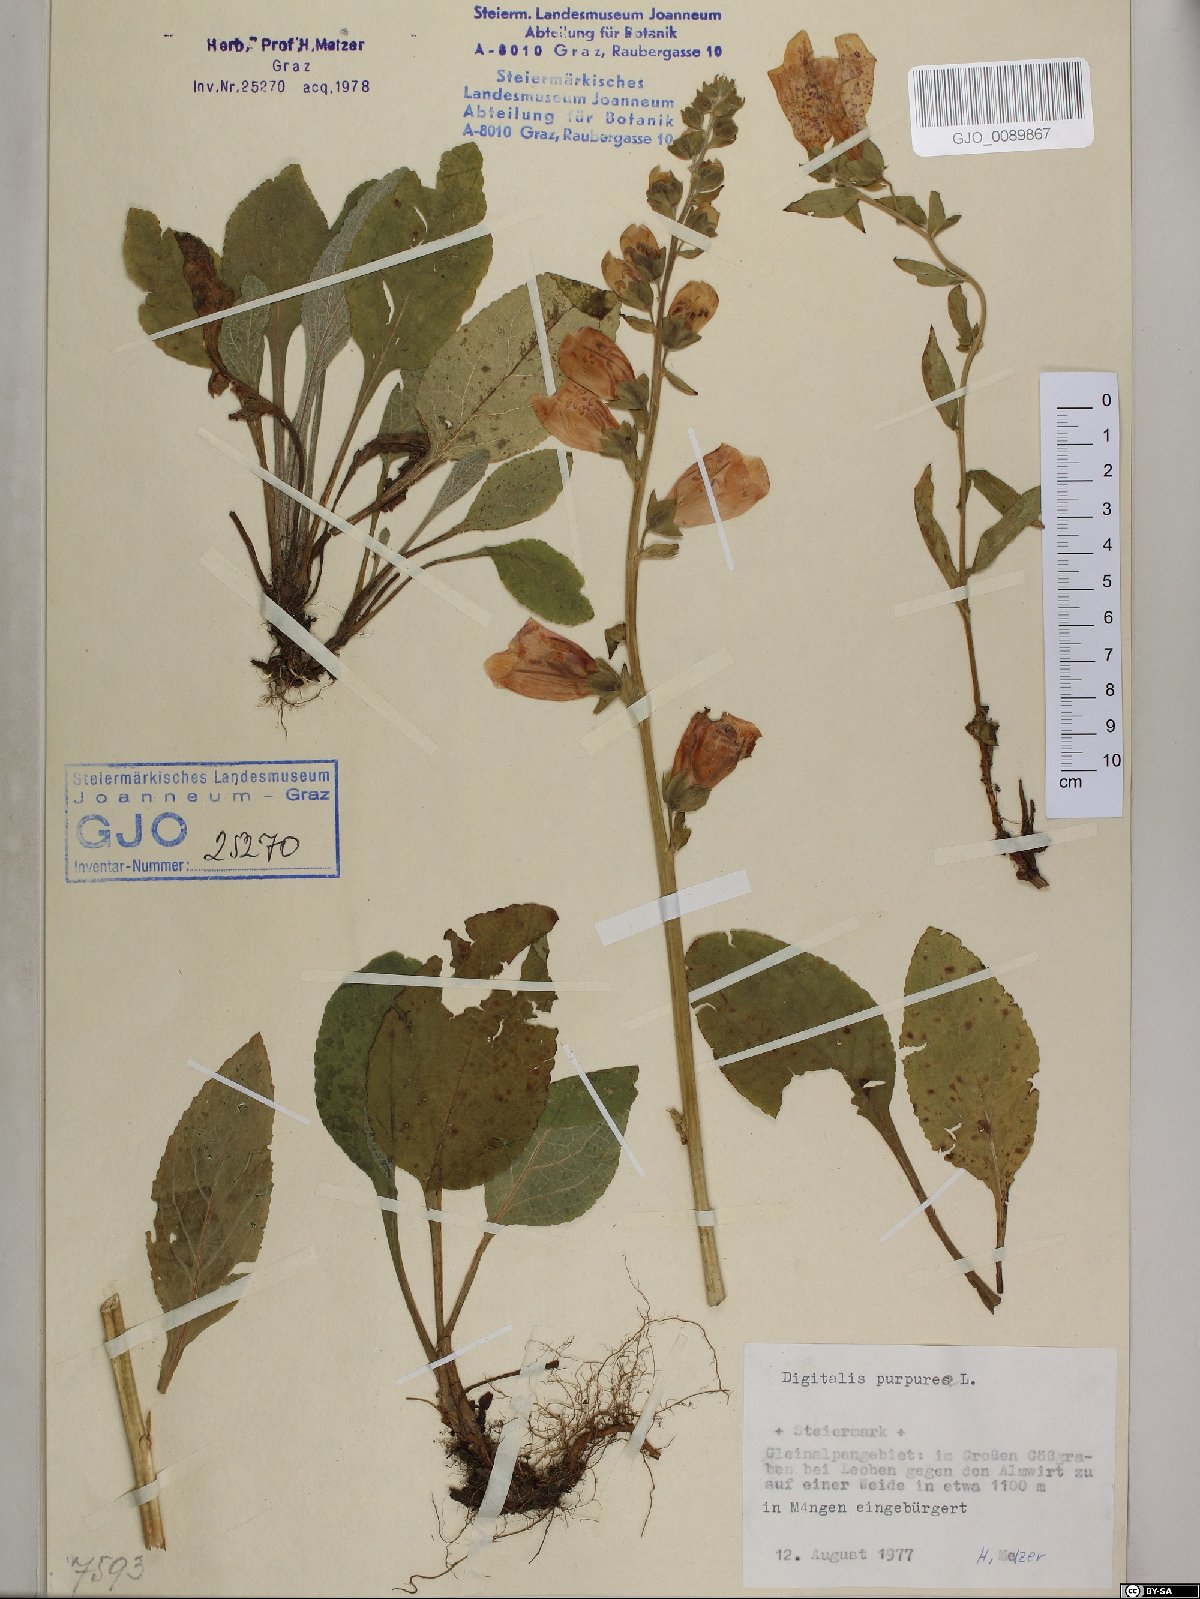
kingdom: Plantae
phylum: Tracheophyta
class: Magnoliopsida
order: Lamiales
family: Plantaginaceae
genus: Digitalis
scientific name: Digitalis purpurea
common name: Foxglove
